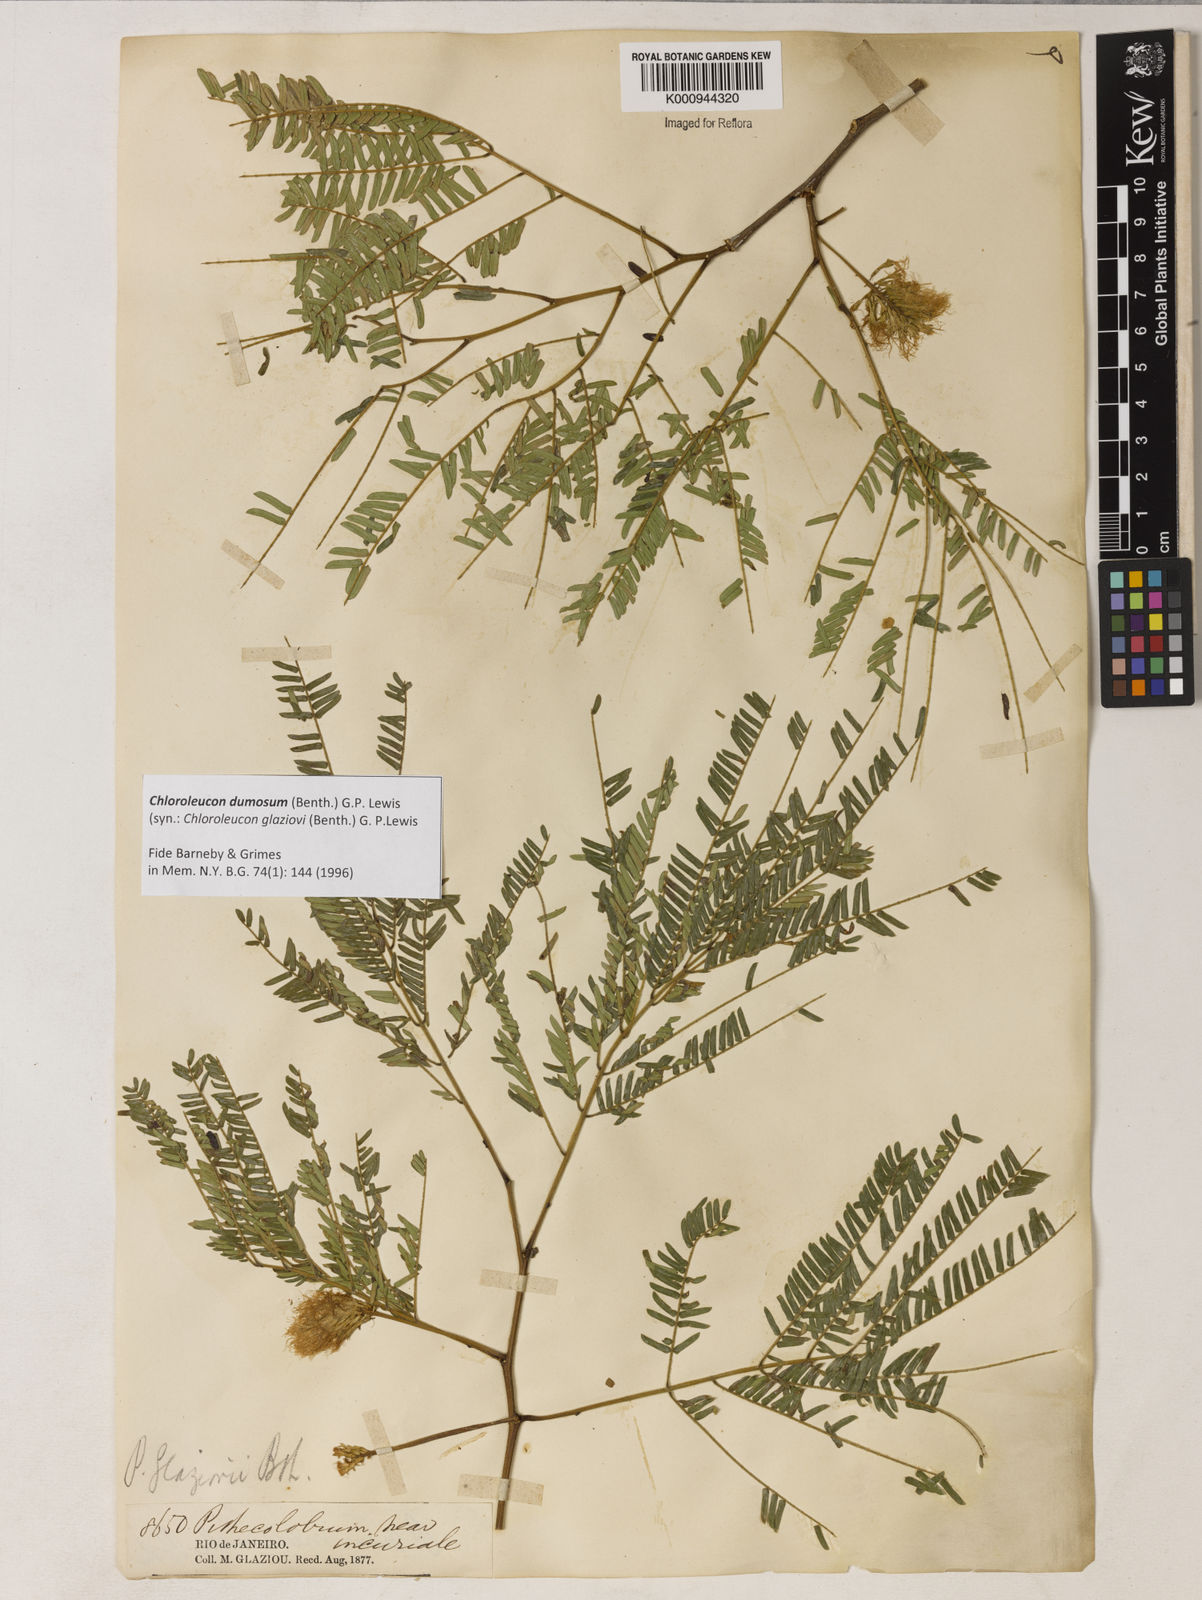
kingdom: Plantae
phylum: Tracheophyta
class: Magnoliopsida
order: Fabales
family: Fabaceae
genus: Inga
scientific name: Inga stenoptera
